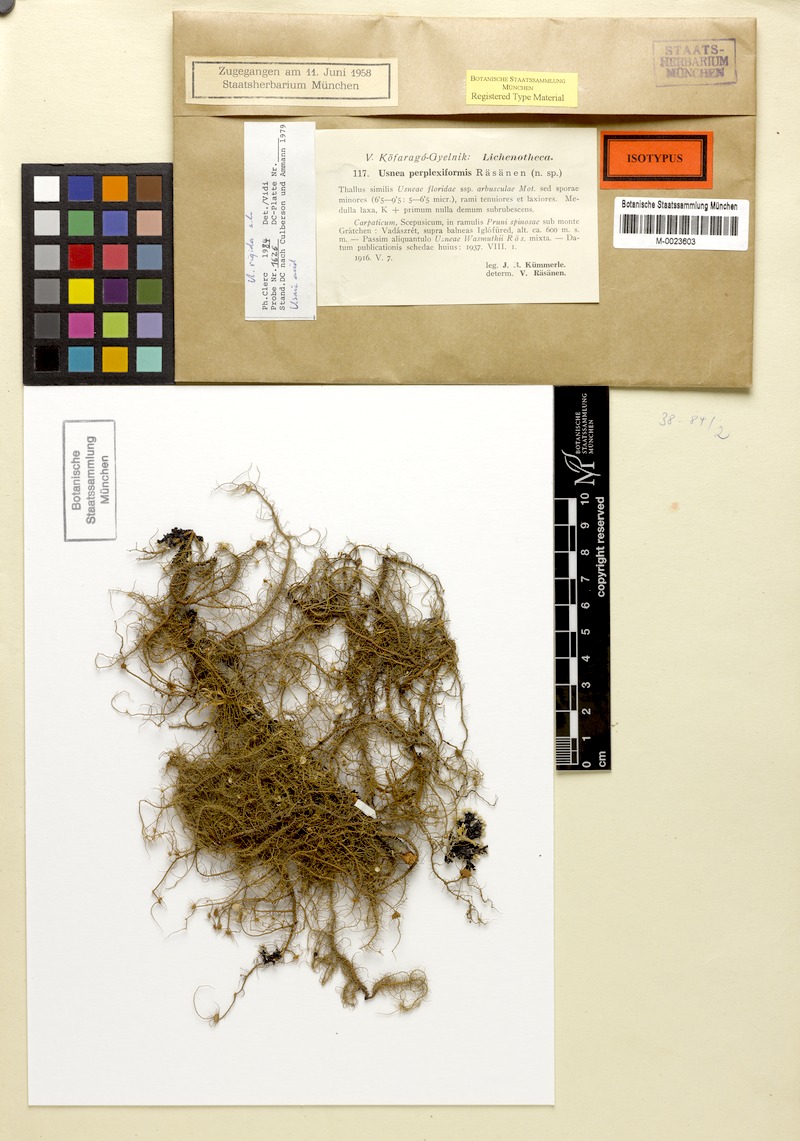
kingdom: Fungi
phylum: Ascomycota
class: Lecanoromycetes
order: Lecanorales
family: Parmeliaceae
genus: Usnea
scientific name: Usnea quasirigida
